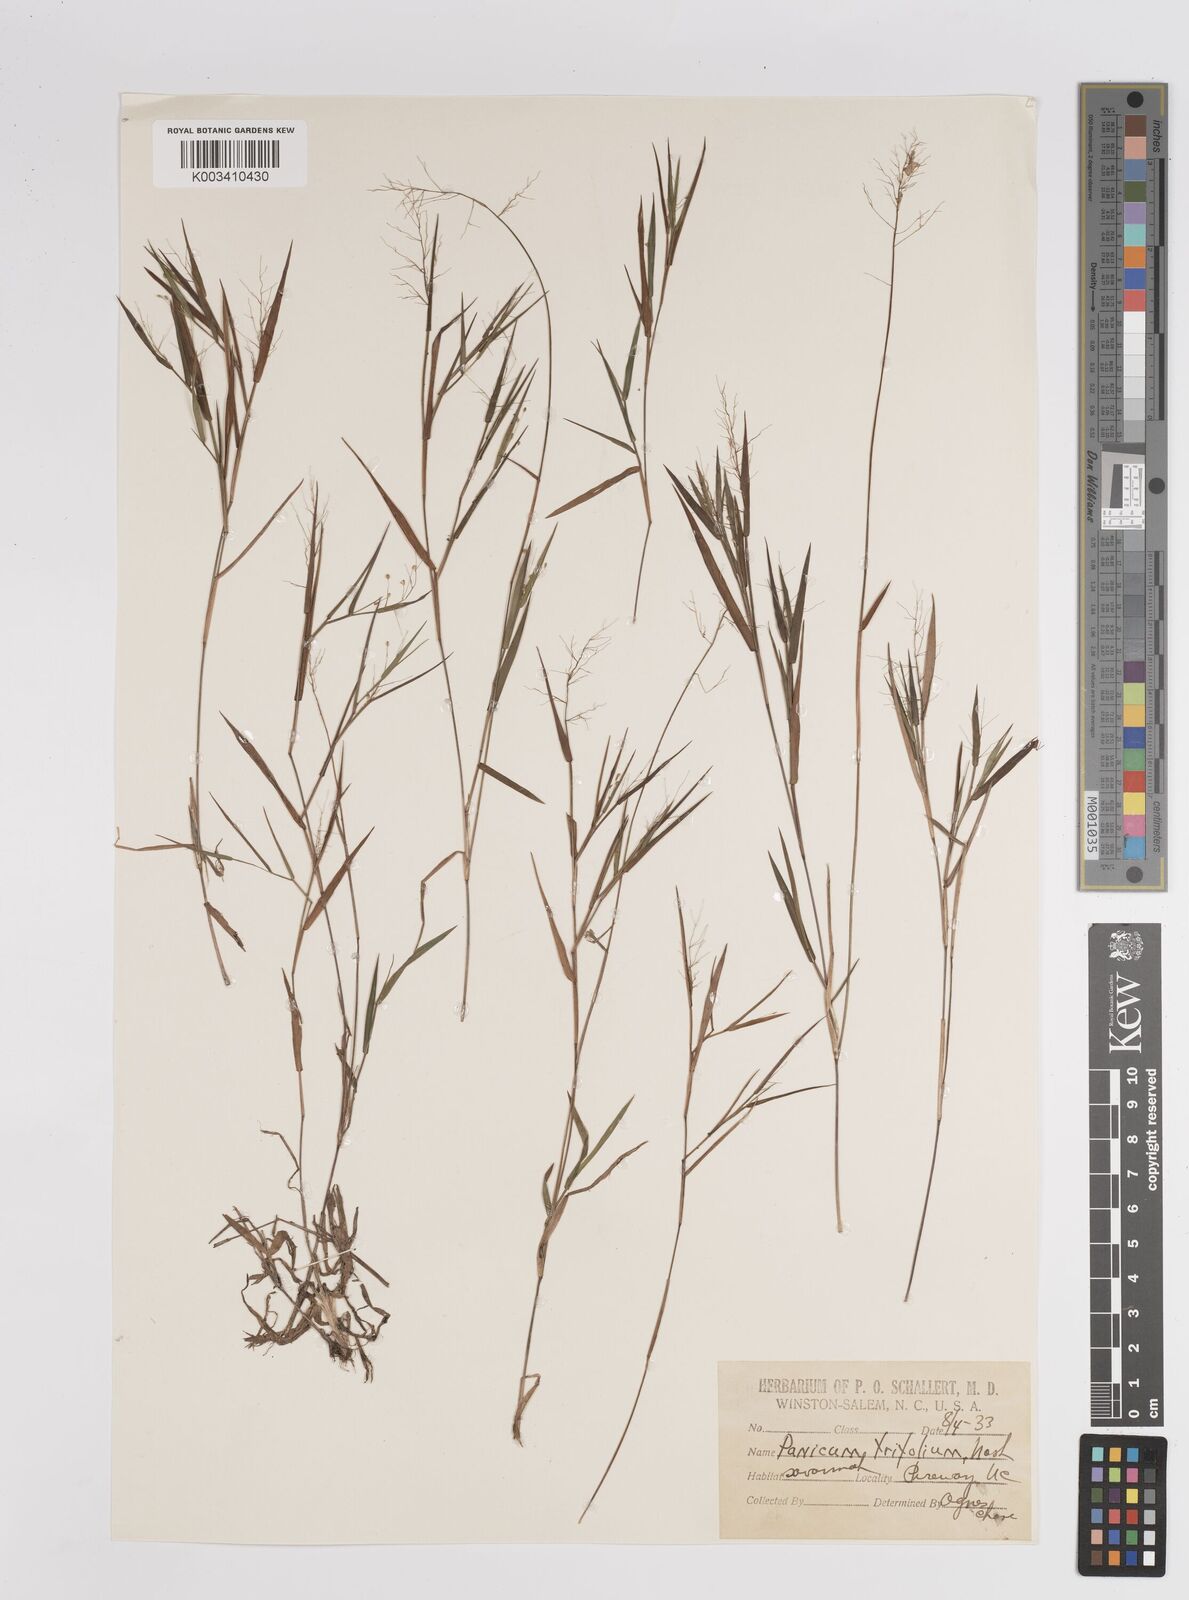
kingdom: Plantae
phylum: Tracheophyta
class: Liliopsida
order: Poales
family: Poaceae
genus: Dichanthelium
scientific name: Dichanthelium trifolium
